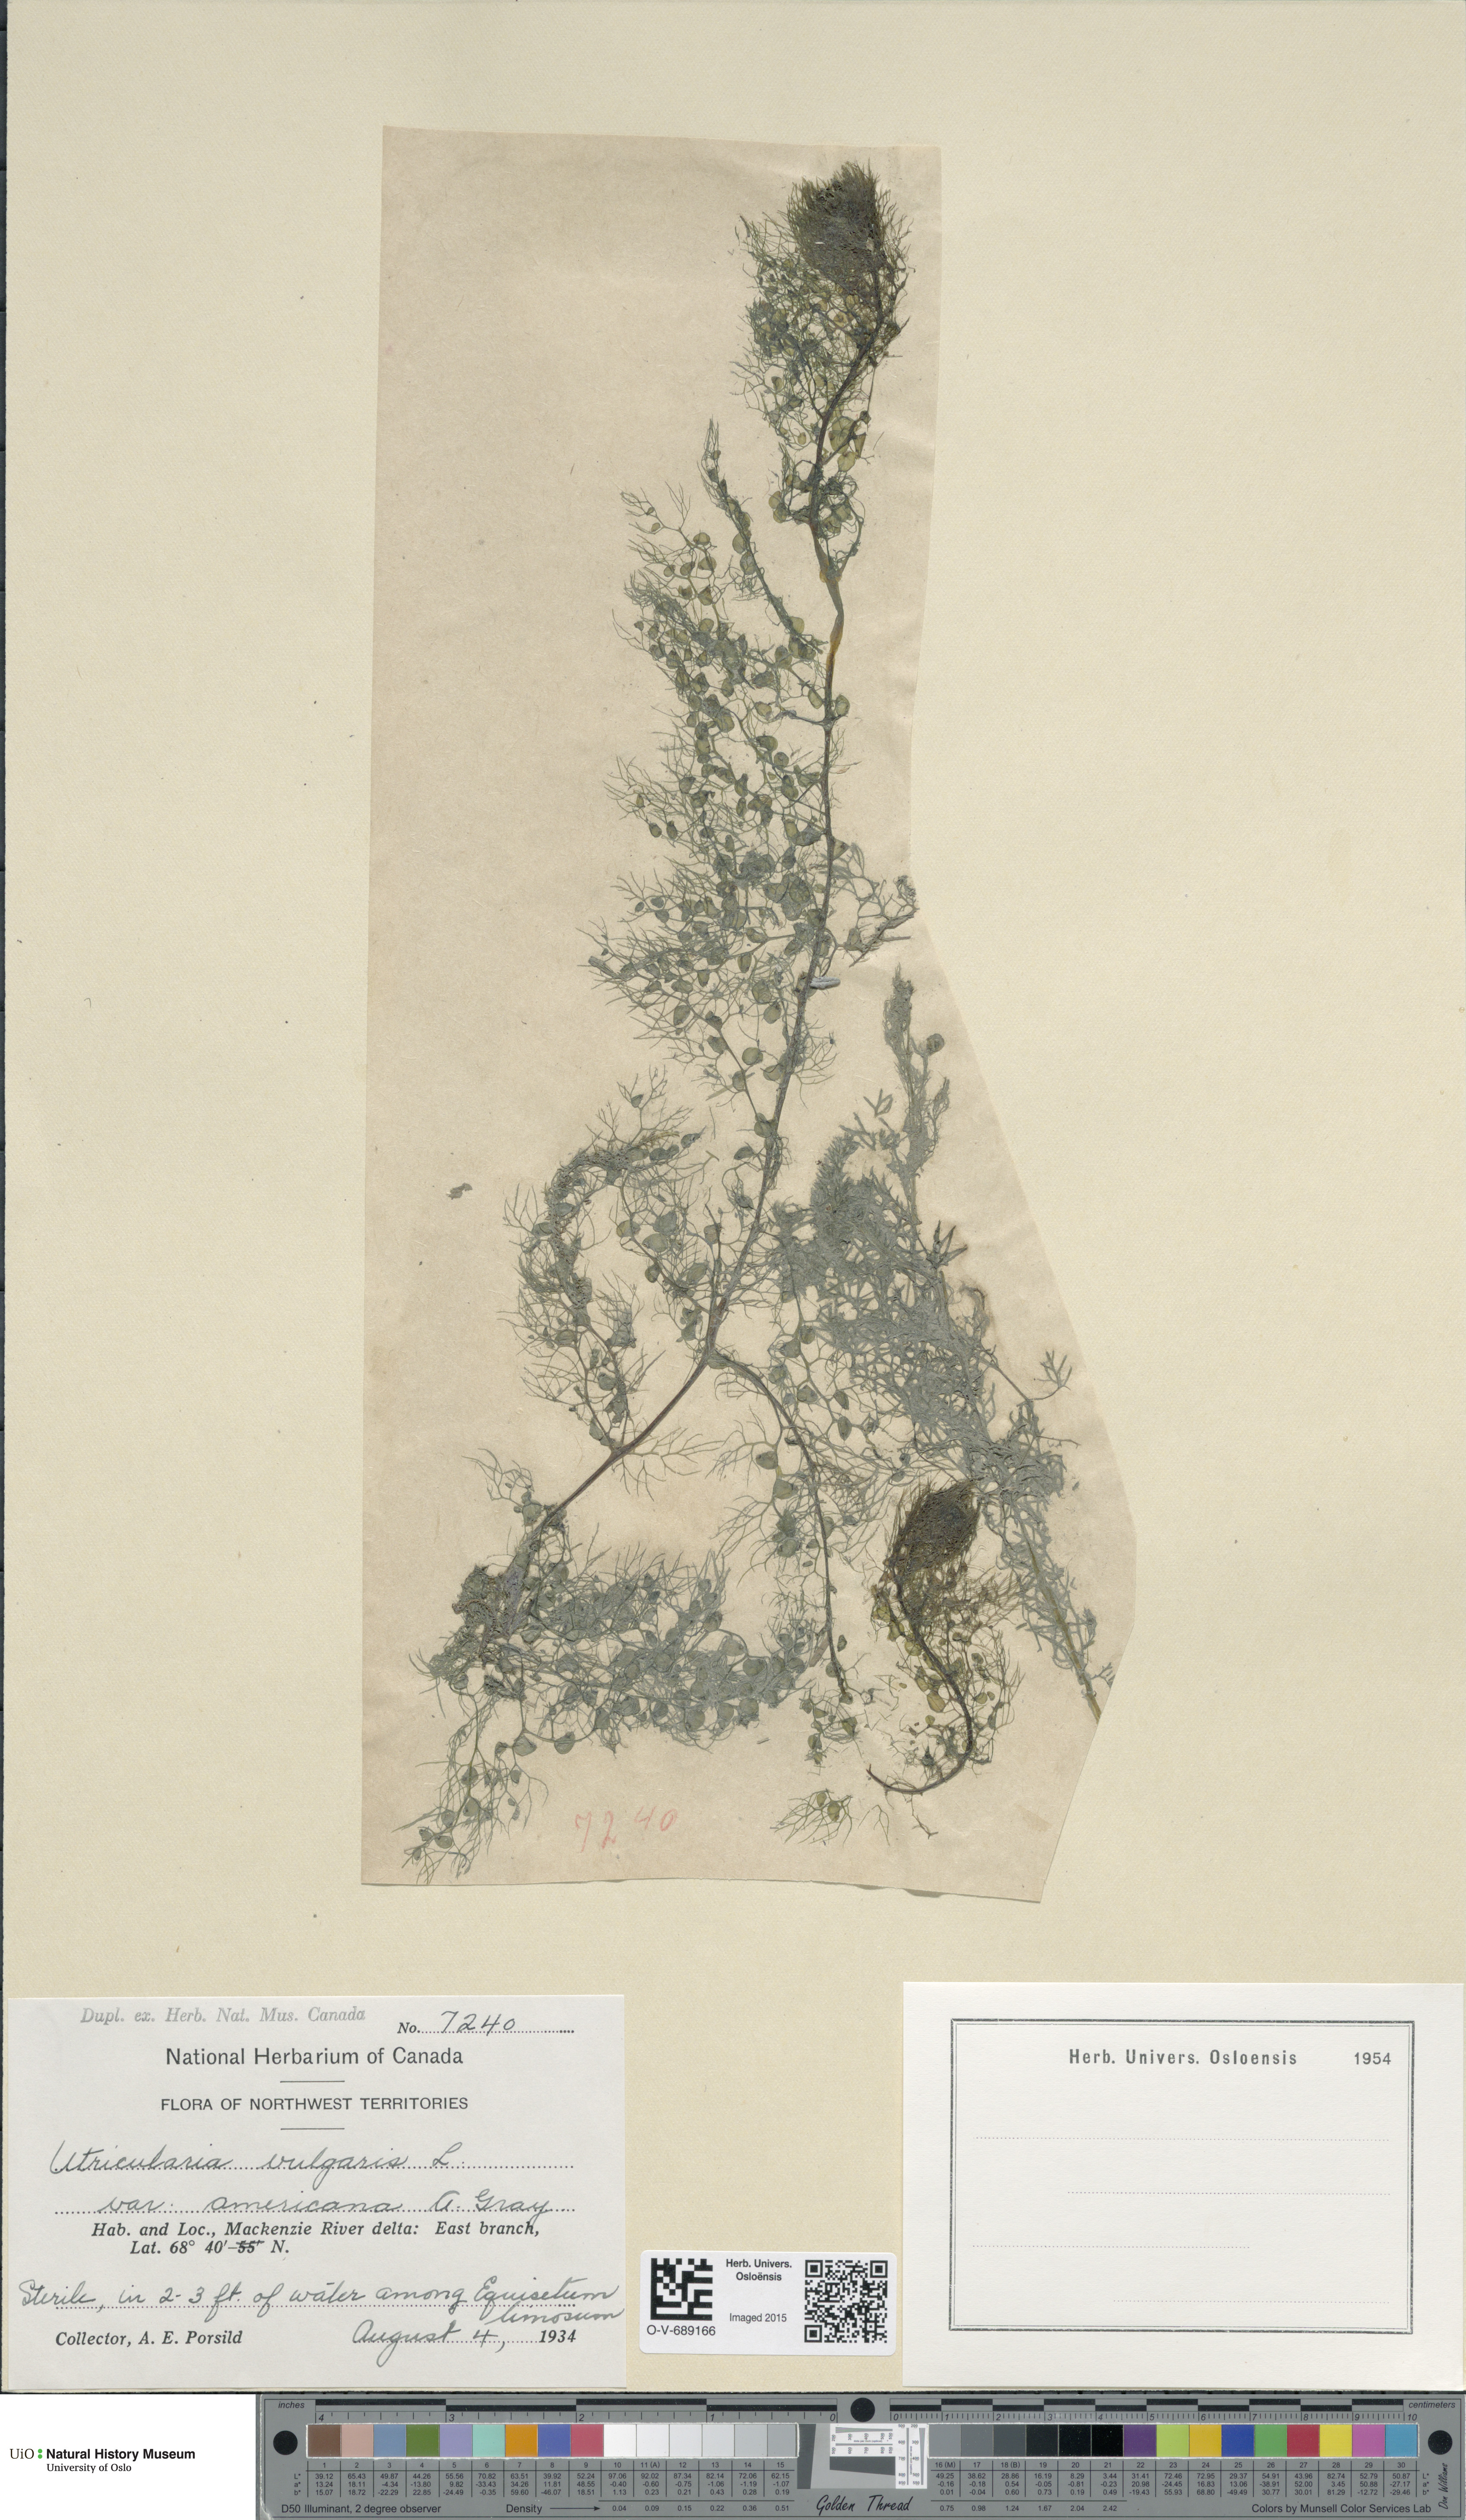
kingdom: Plantae
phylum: Tracheophyta
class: Magnoliopsida
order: Lamiales
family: Lentibulariaceae
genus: Utricularia
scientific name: Utricularia macrorhiza
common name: Common bladderwort
